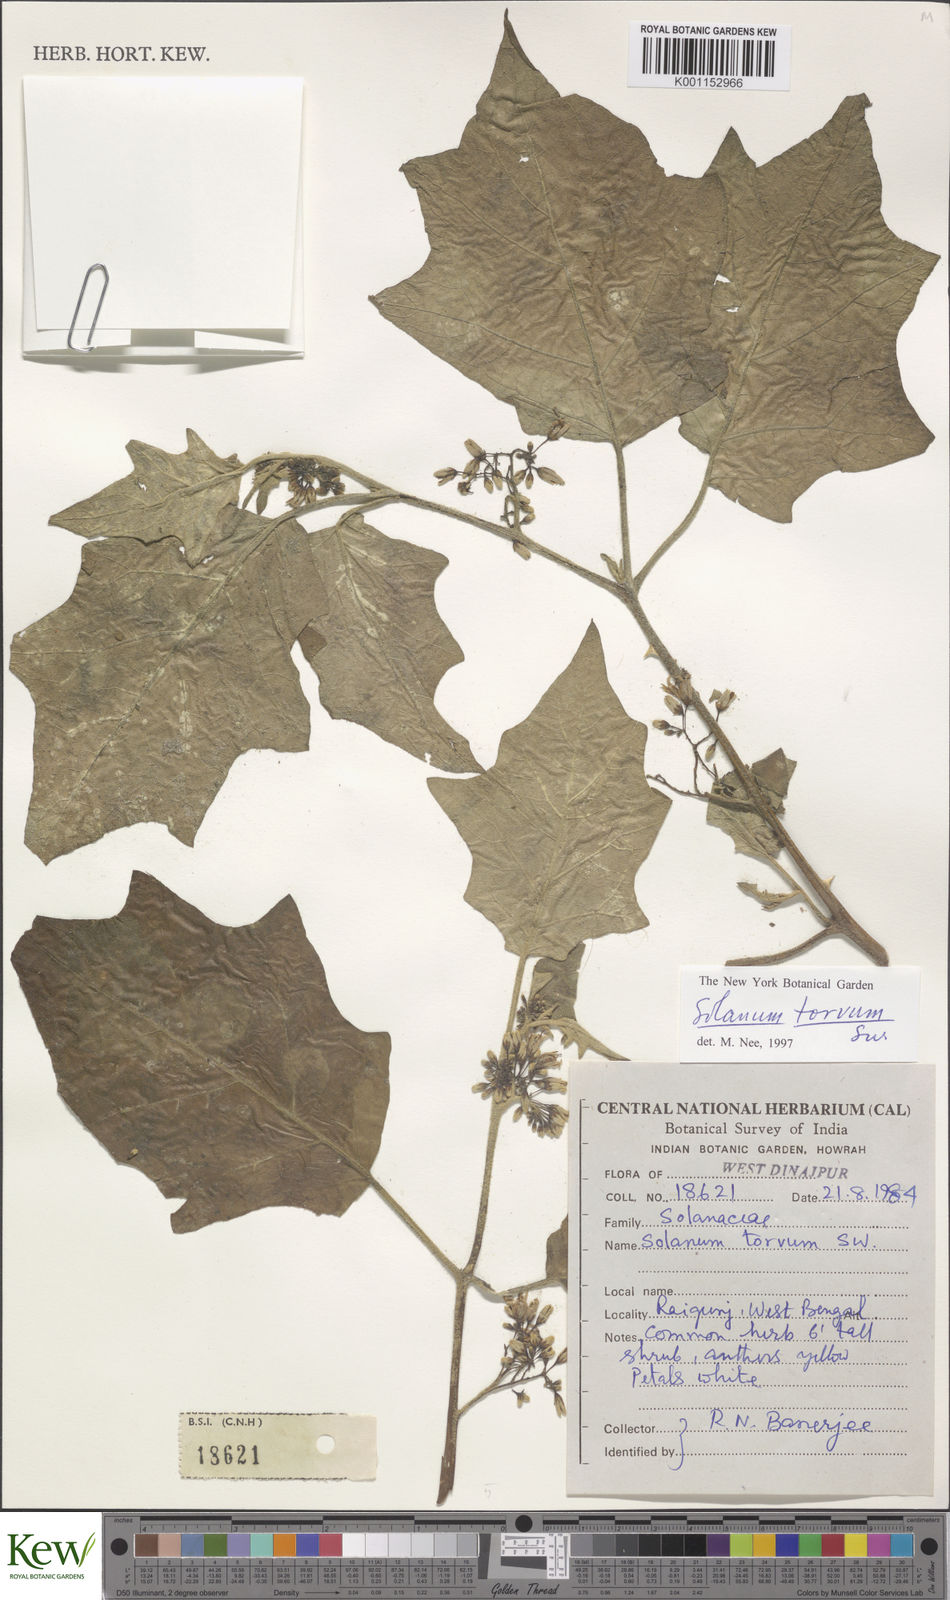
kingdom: Plantae
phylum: Tracheophyta
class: Magnoliopsida
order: Solanales
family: Solanaceae
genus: Solanum
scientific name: Solanum torvum
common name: Turkey berry
